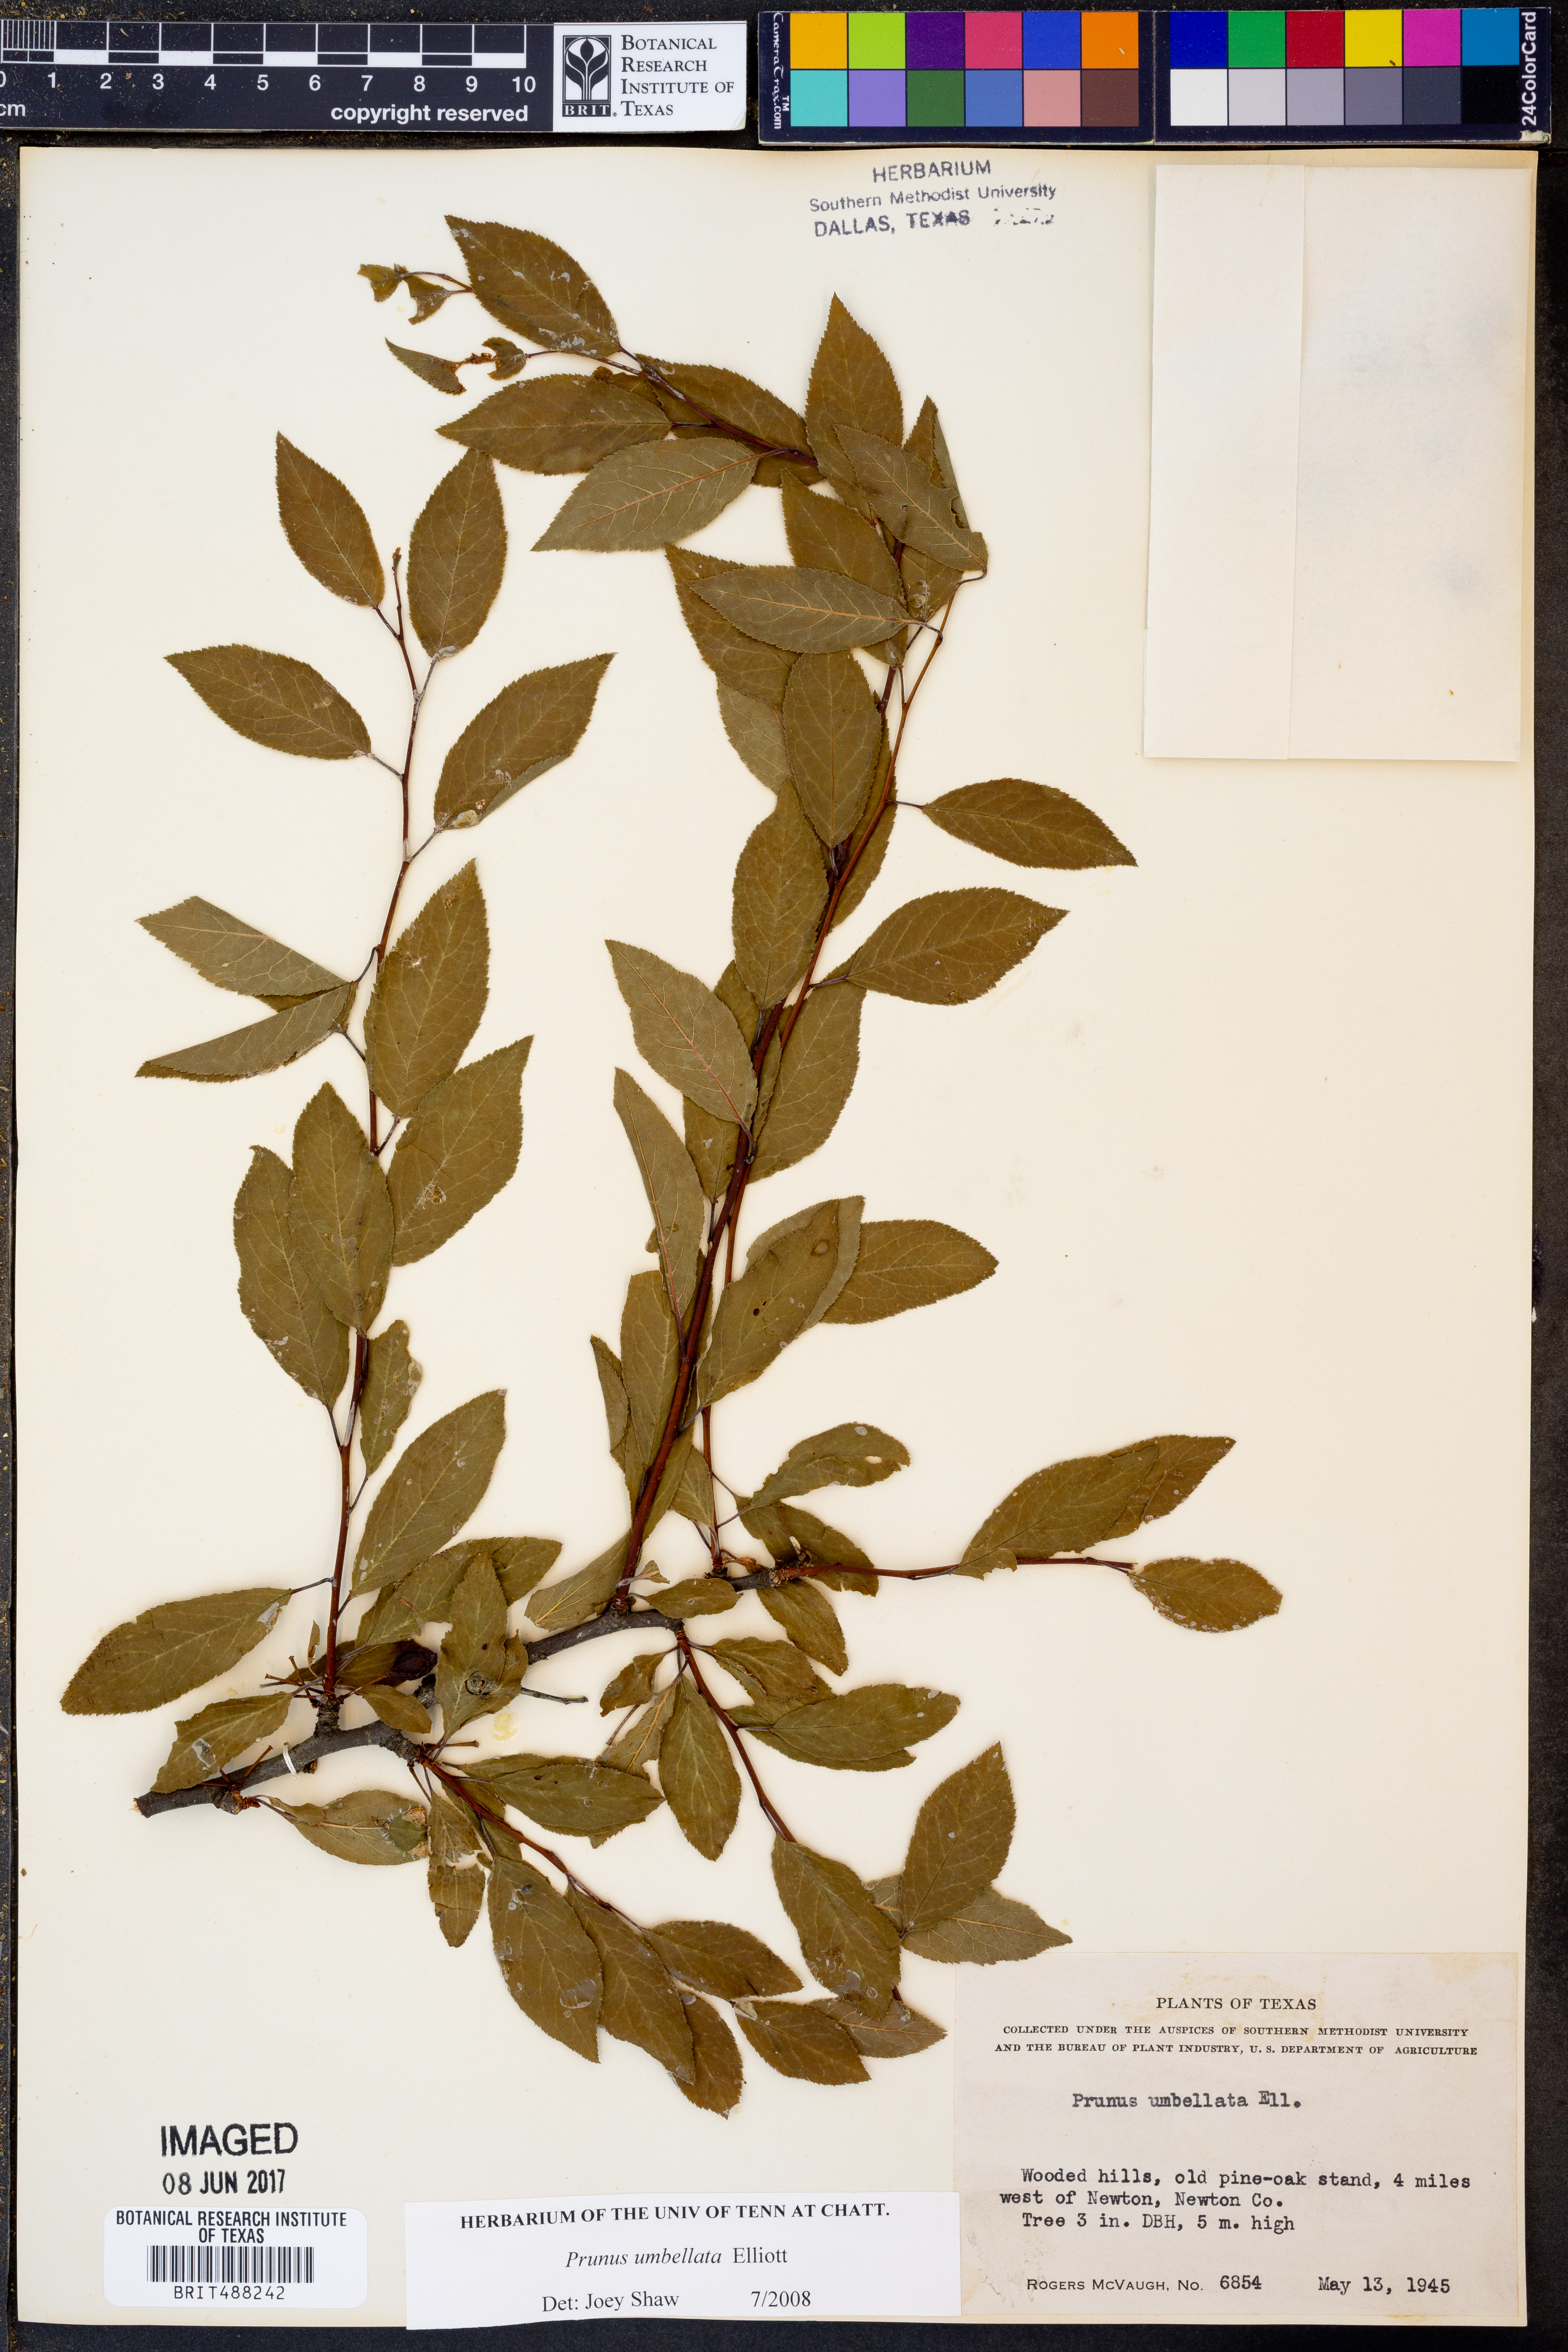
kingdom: Plantae
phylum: Tracheophyta
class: Magnoliopsida
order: Rosales
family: Rosaceae
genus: Prunus
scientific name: Prunus umbellata
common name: Allegheny plum
